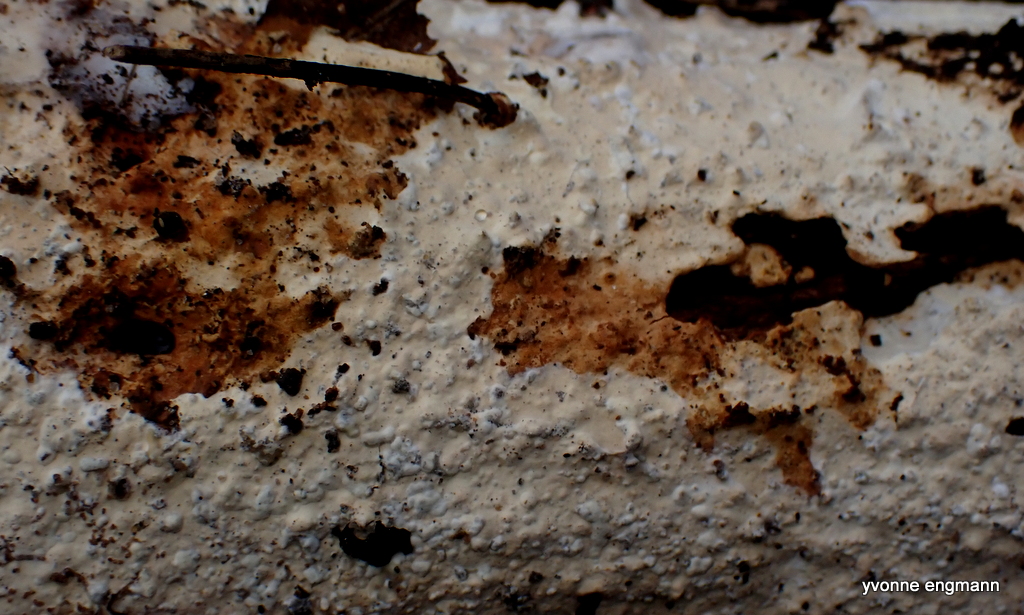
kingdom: Fungi
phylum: Basidiomycota
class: Agaricomycetes
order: Corticiales
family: Corticiaceae
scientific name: Corticiaceae
